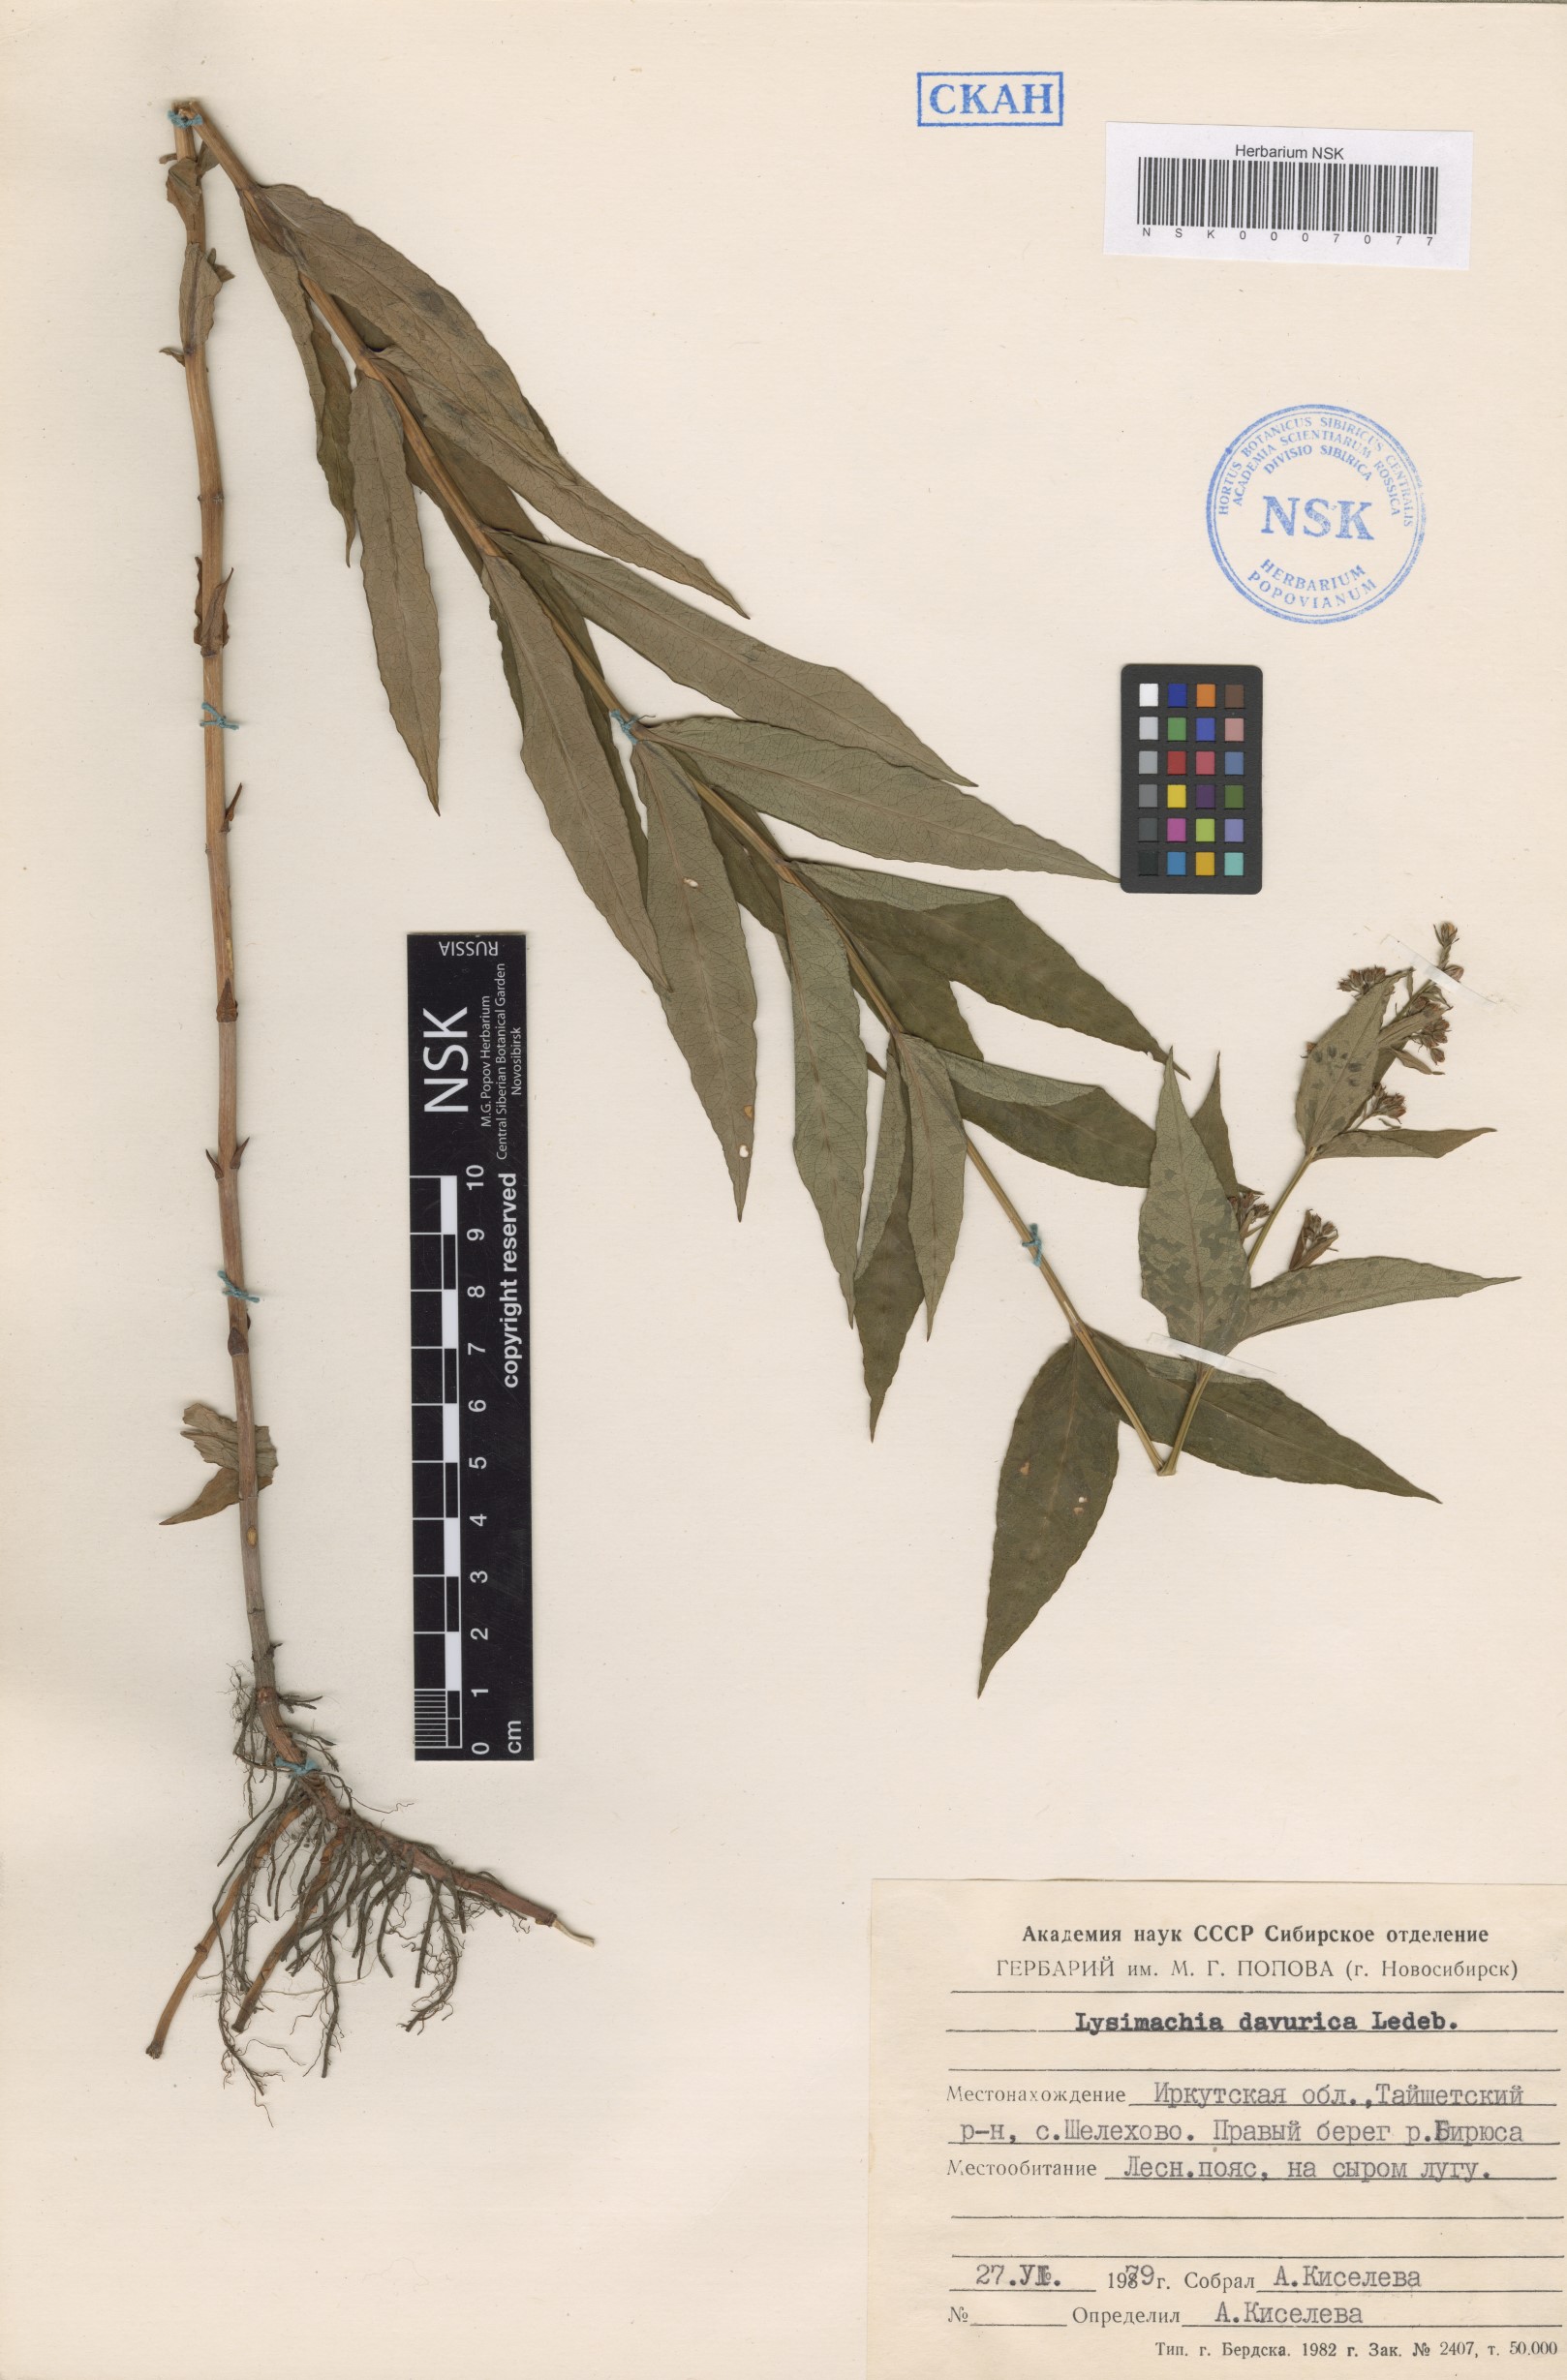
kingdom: Plantae
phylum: Tracheophyta
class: Magnoliopsida
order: Ericales
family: Primulaceae
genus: Lysimachia
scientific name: Lysimachia davurica
